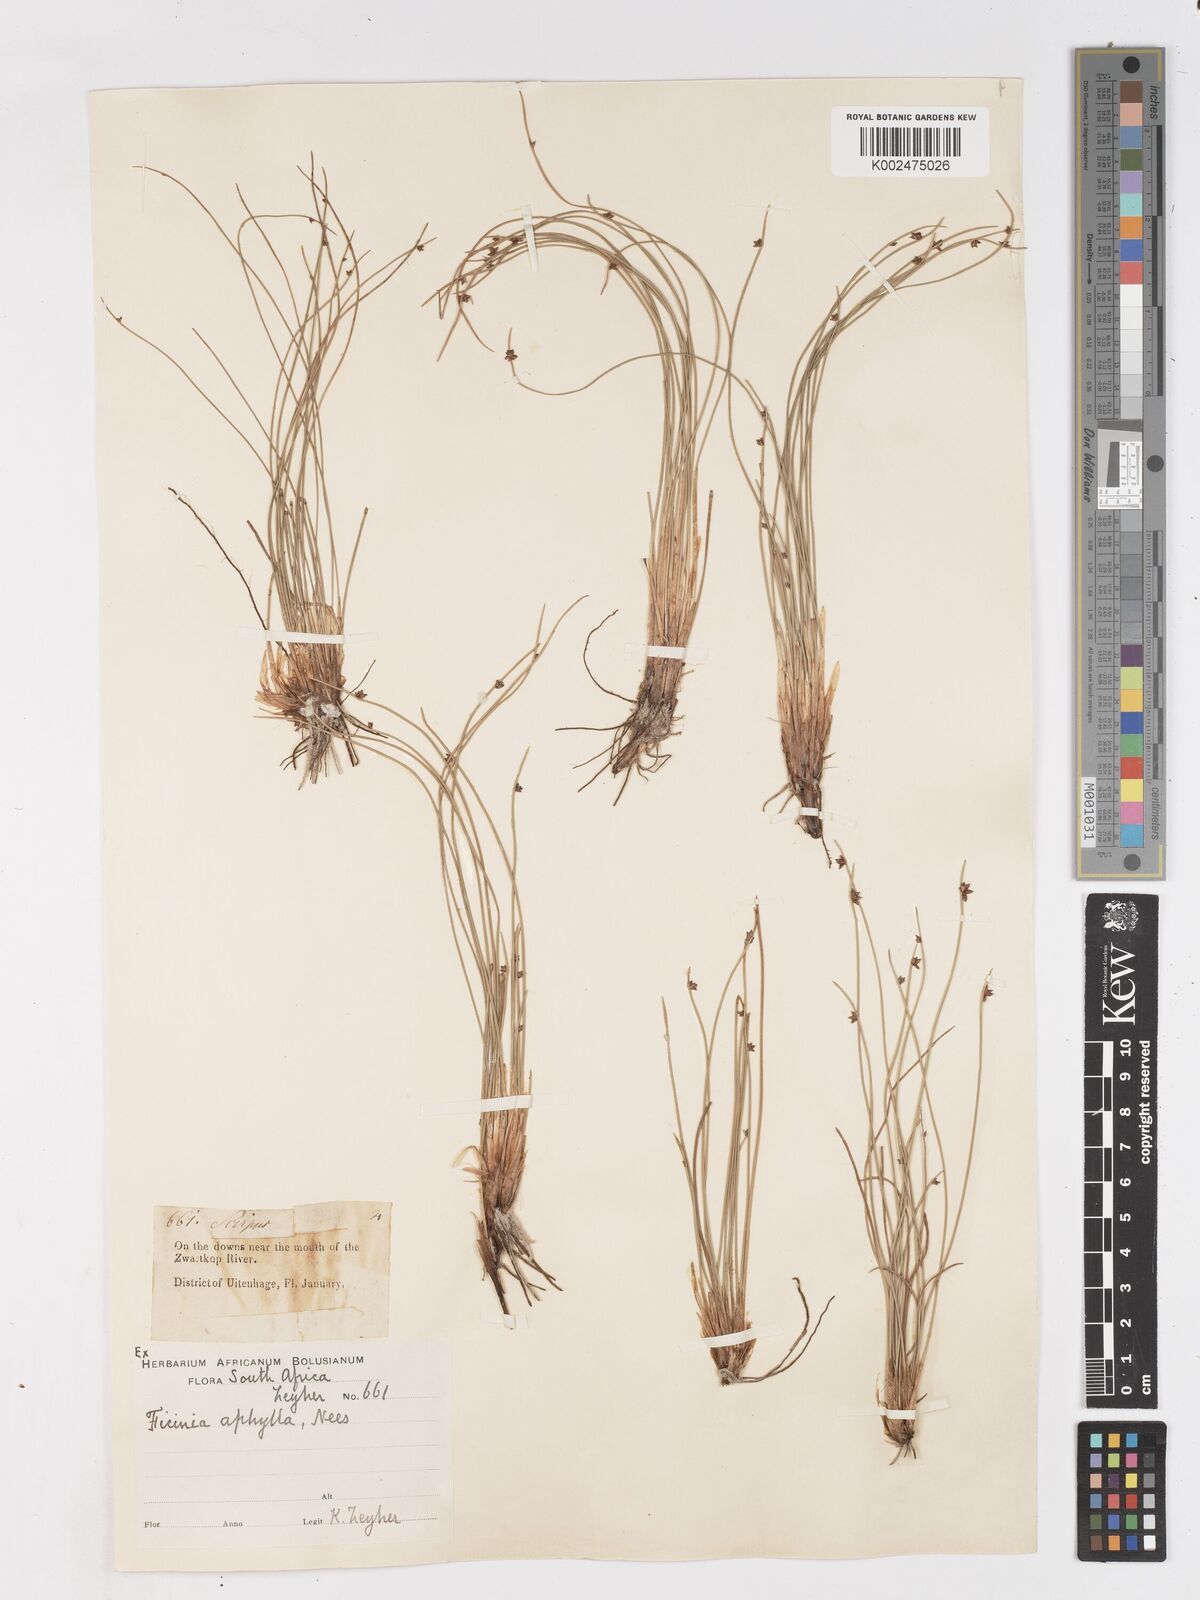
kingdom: Plantae
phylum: Tracheophyta
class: Liliopsida
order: Poales
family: Cyperaceae
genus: Ficinia
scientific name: Ficinia lateralis
